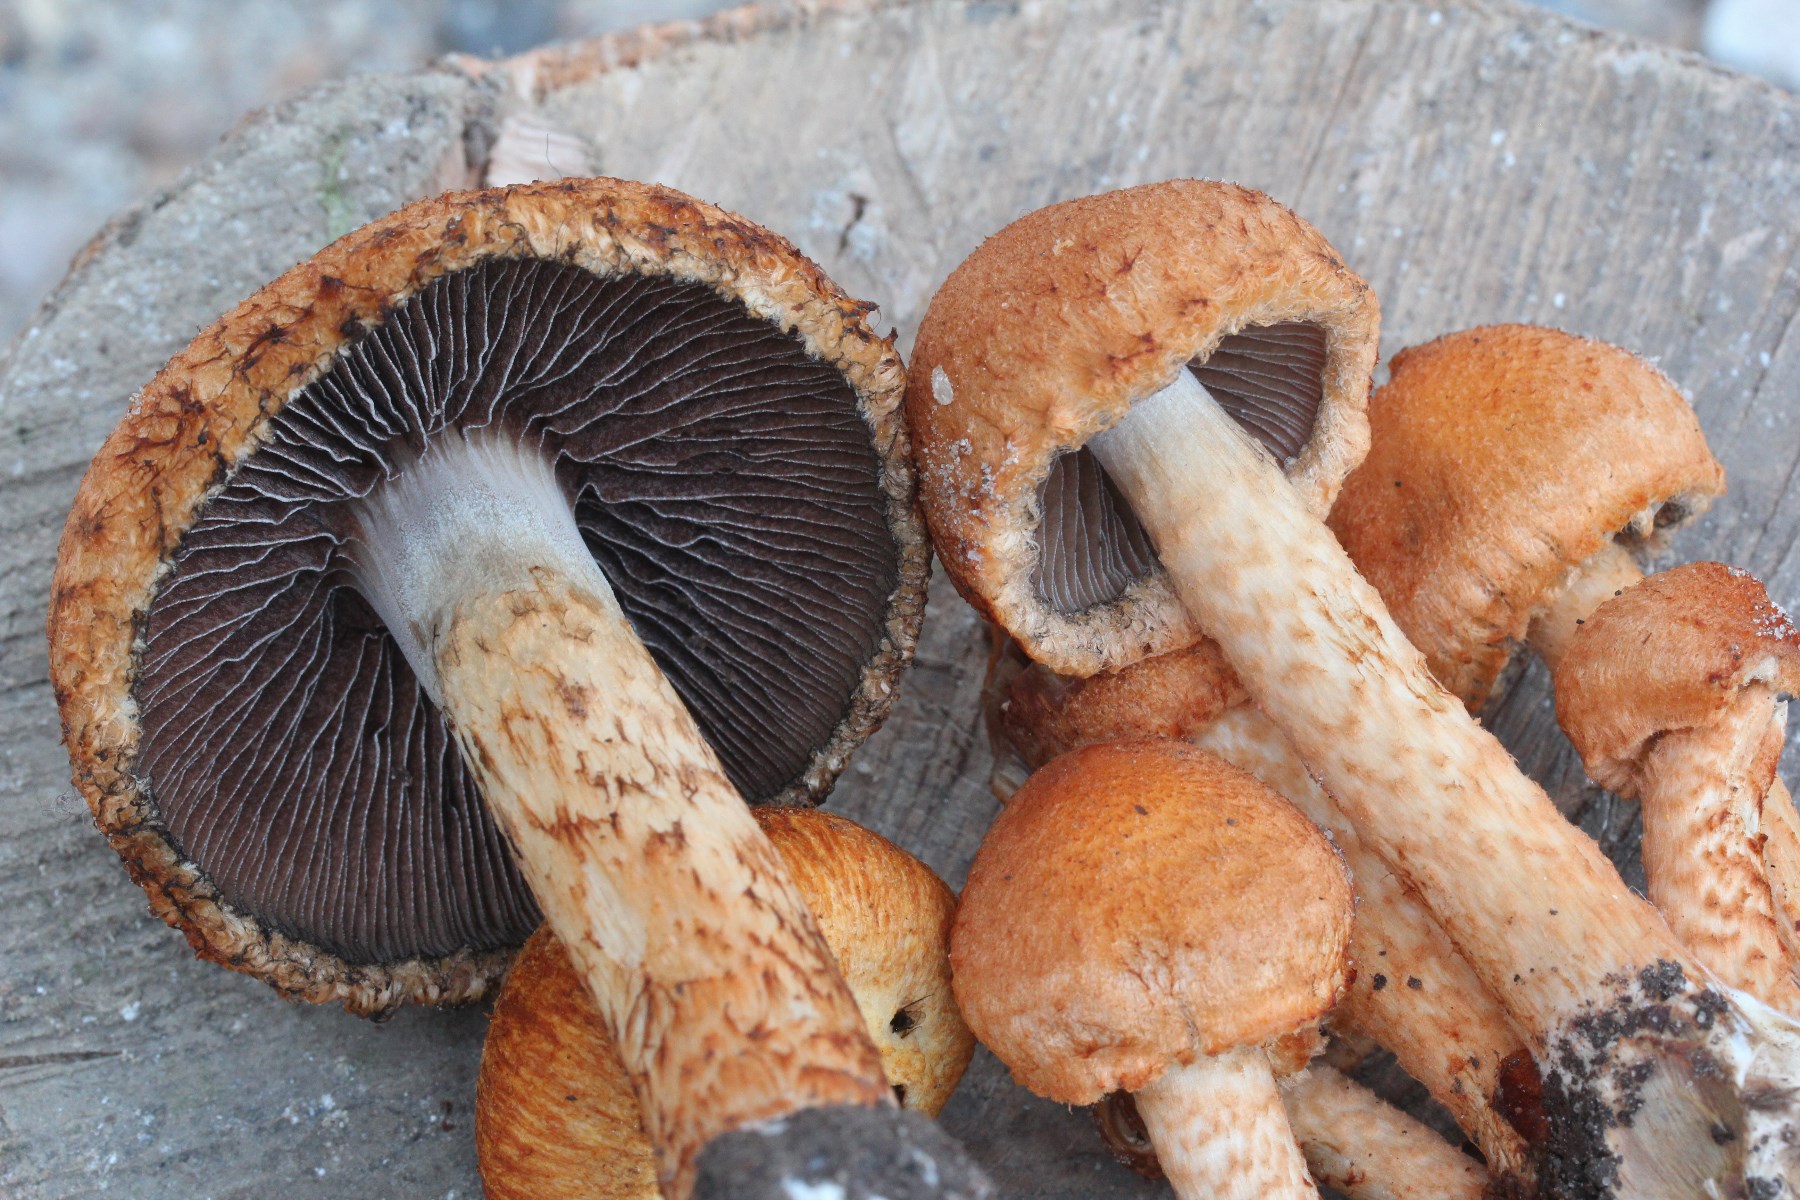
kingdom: Fungi
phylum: Basidiomycota
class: Agaricomycetes
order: Agaricales
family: Psathyrellaceae
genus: Lacrymaria
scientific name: Lacrymaria pyrotricha
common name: ildhåret mørkhat
